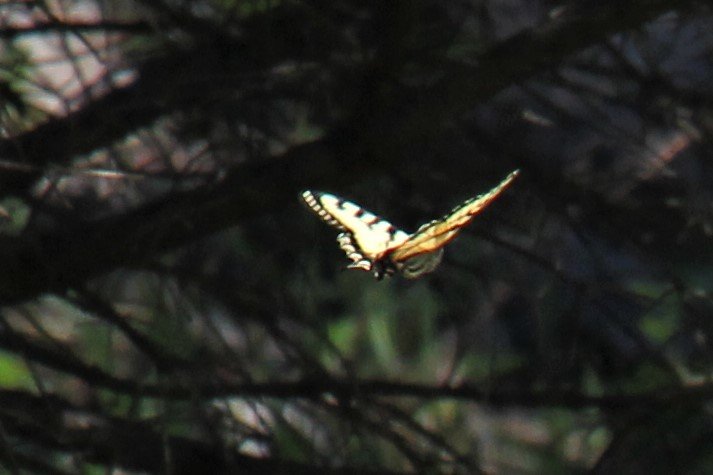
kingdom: Animalia
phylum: Arthropoda
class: Insecta
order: Lepidoptera
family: Papilionidae
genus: Pterourus
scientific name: Pterourus canadensis
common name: Canadian Tiger Swallowtail
